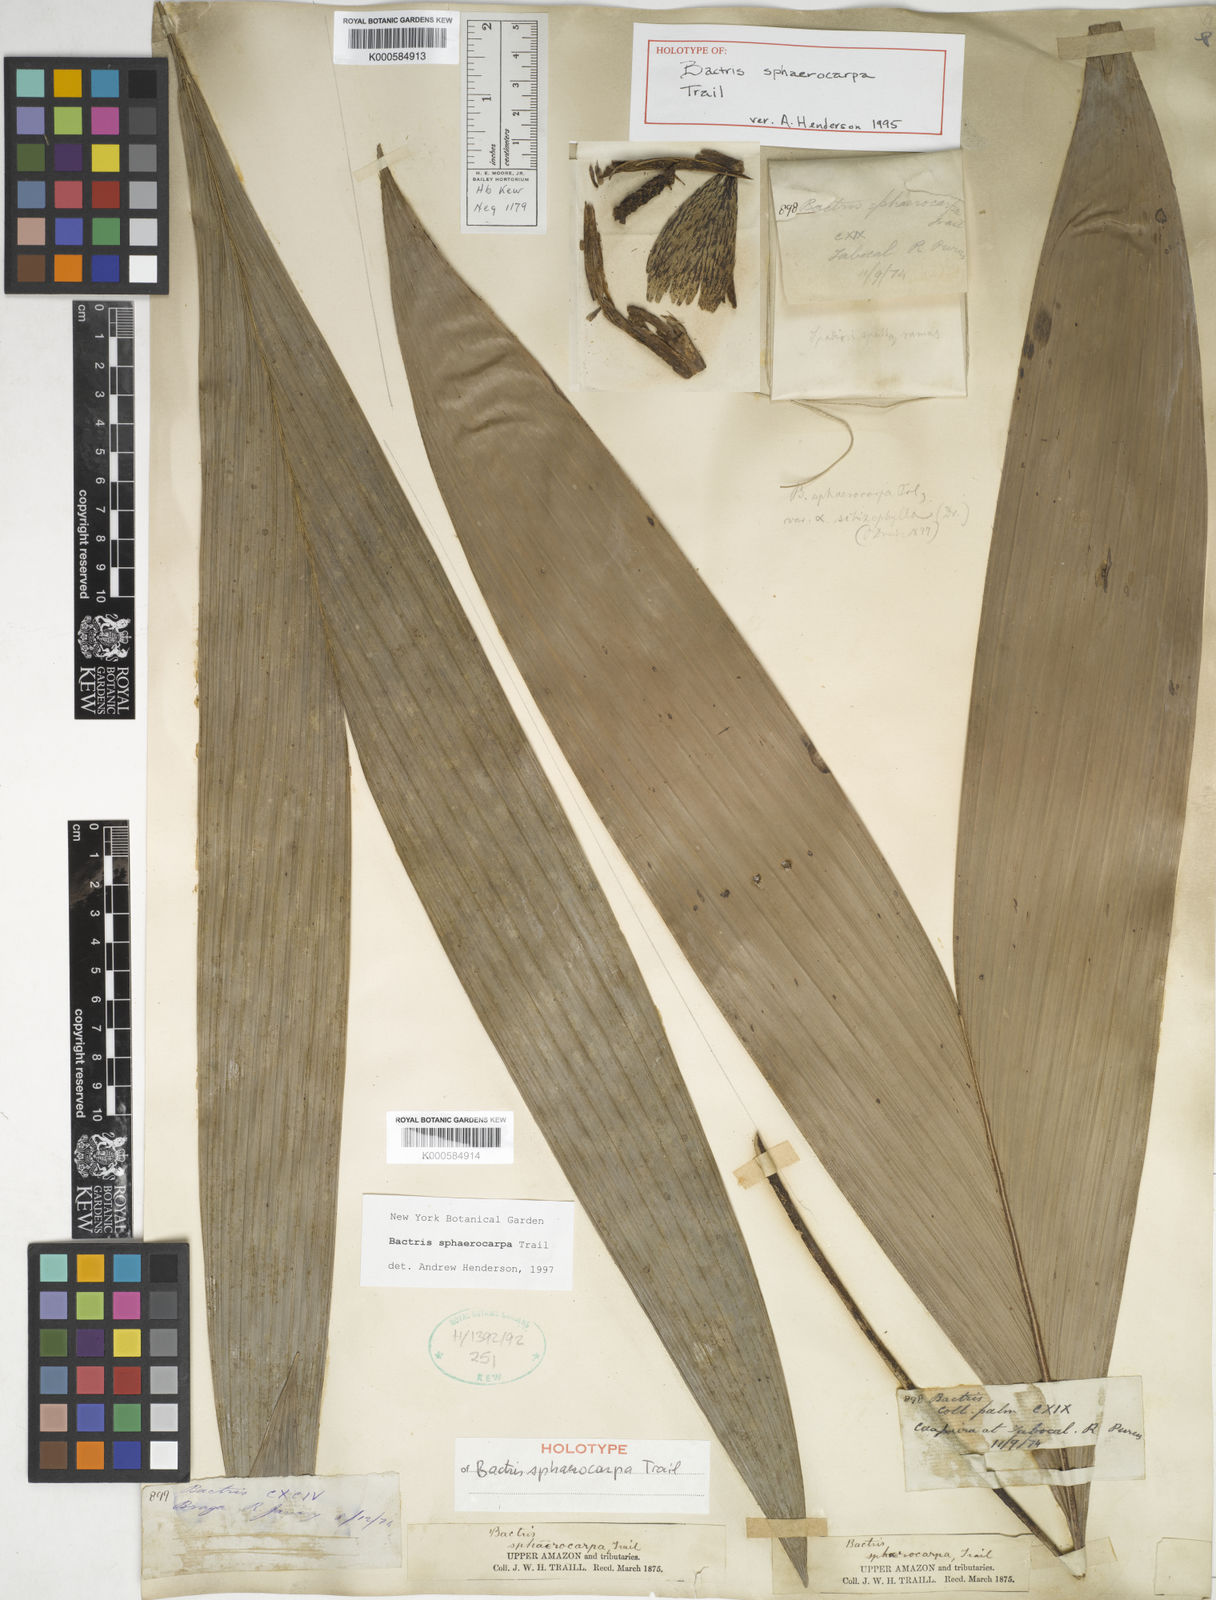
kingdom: Plantae
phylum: Tracheophyta
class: Liliopsida
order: Arecales
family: Arecaceae
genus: Bactris
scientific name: Bactris sphaerocarpa
